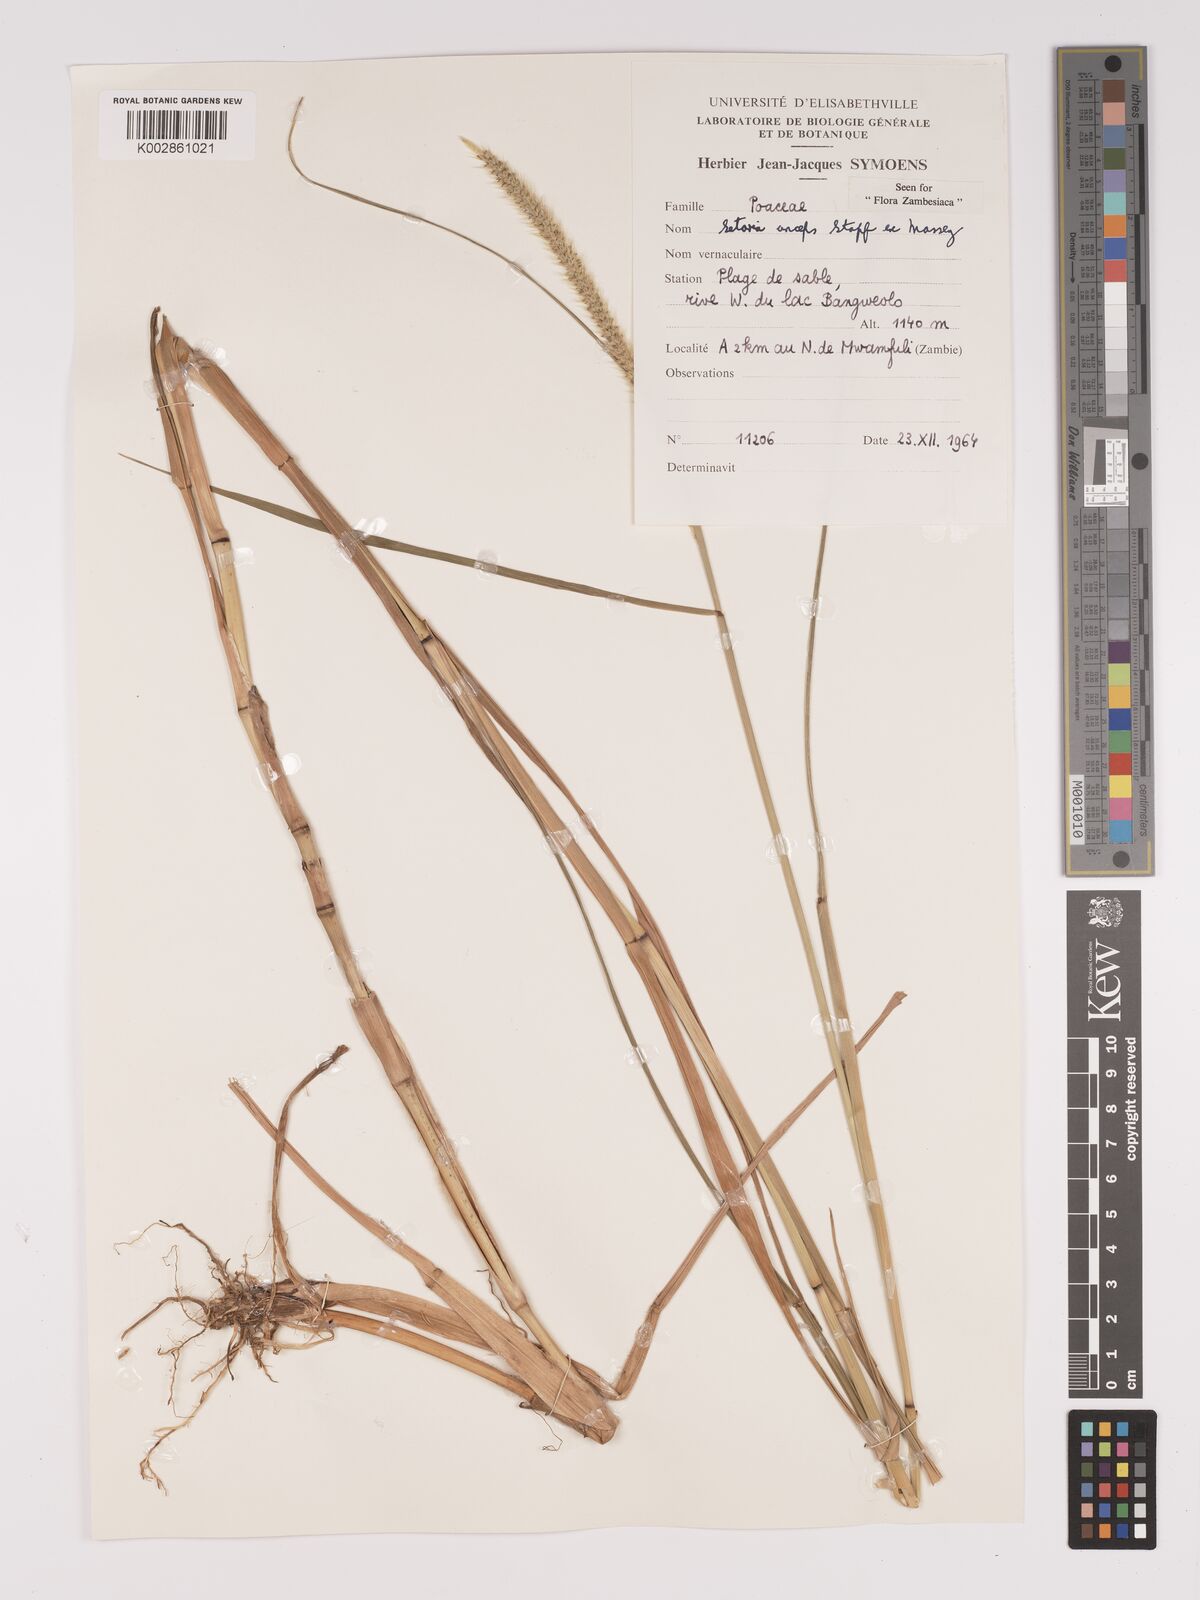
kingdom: Plantae
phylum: Tracheophyta
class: Liliopsida
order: Poales
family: Poaceae
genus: Setaria
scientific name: Setaria sphacelata
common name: African bristlegrass
